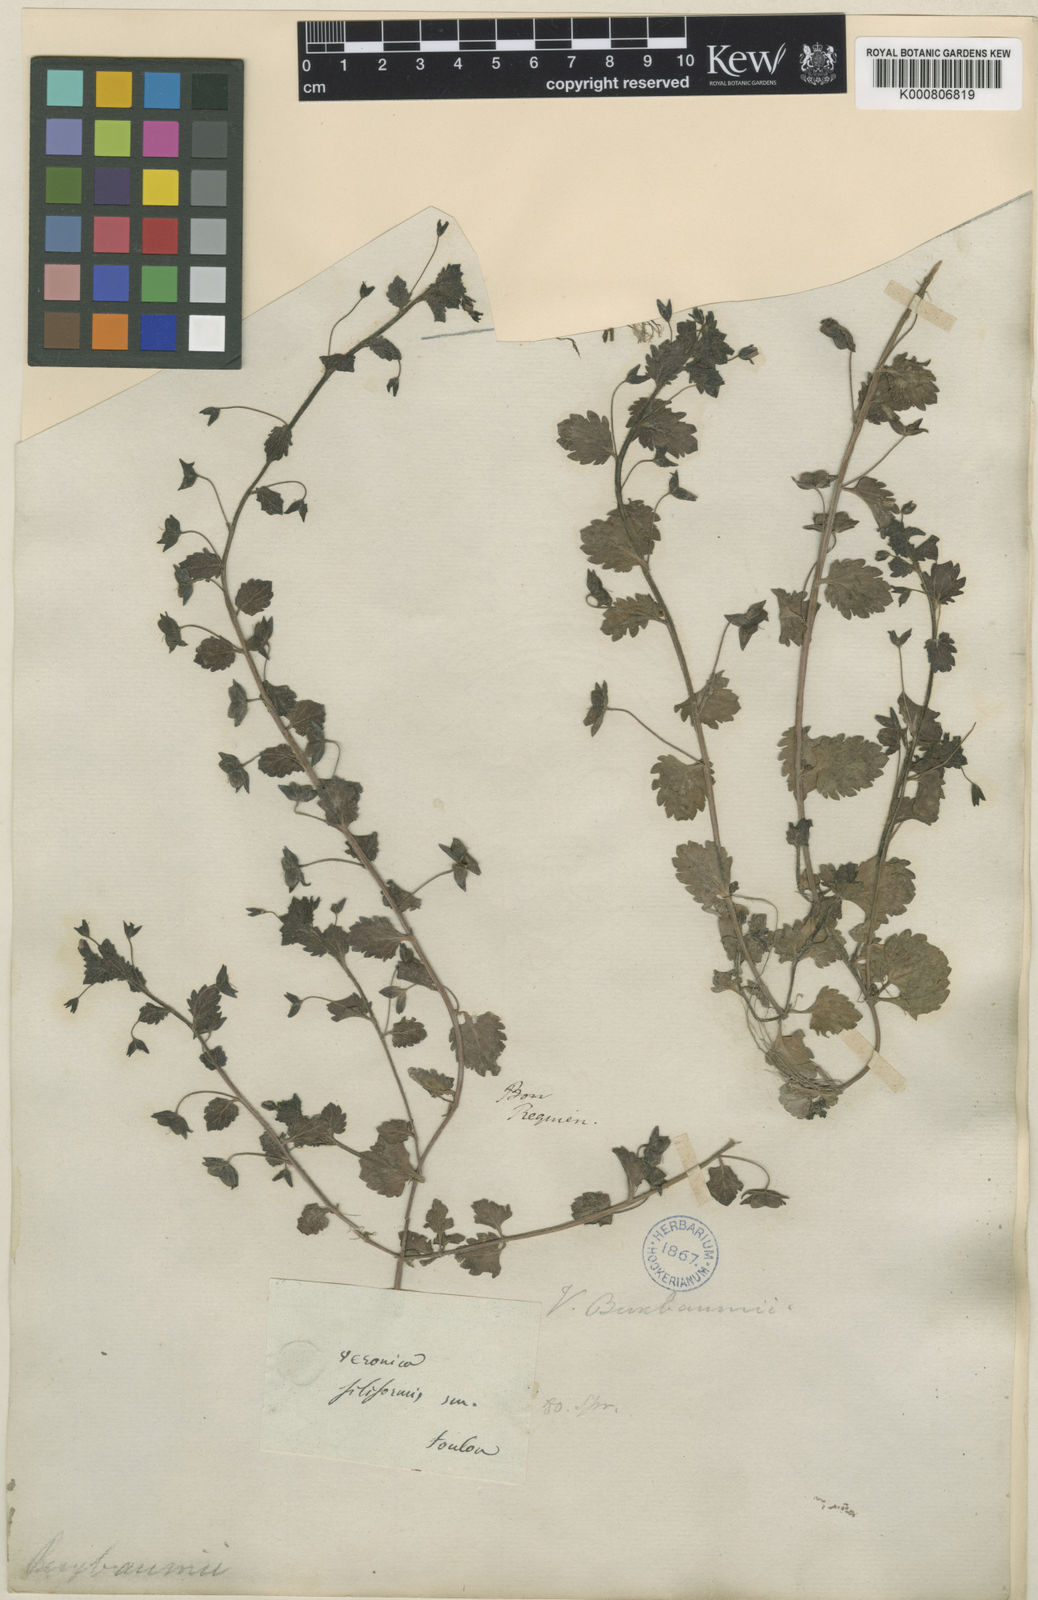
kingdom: Plantae
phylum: Tracheophyta
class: Magnoliopsida
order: Lamiales
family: Plantaginaceae
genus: Veronica
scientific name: Veronica persica
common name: Common field-speedwell
